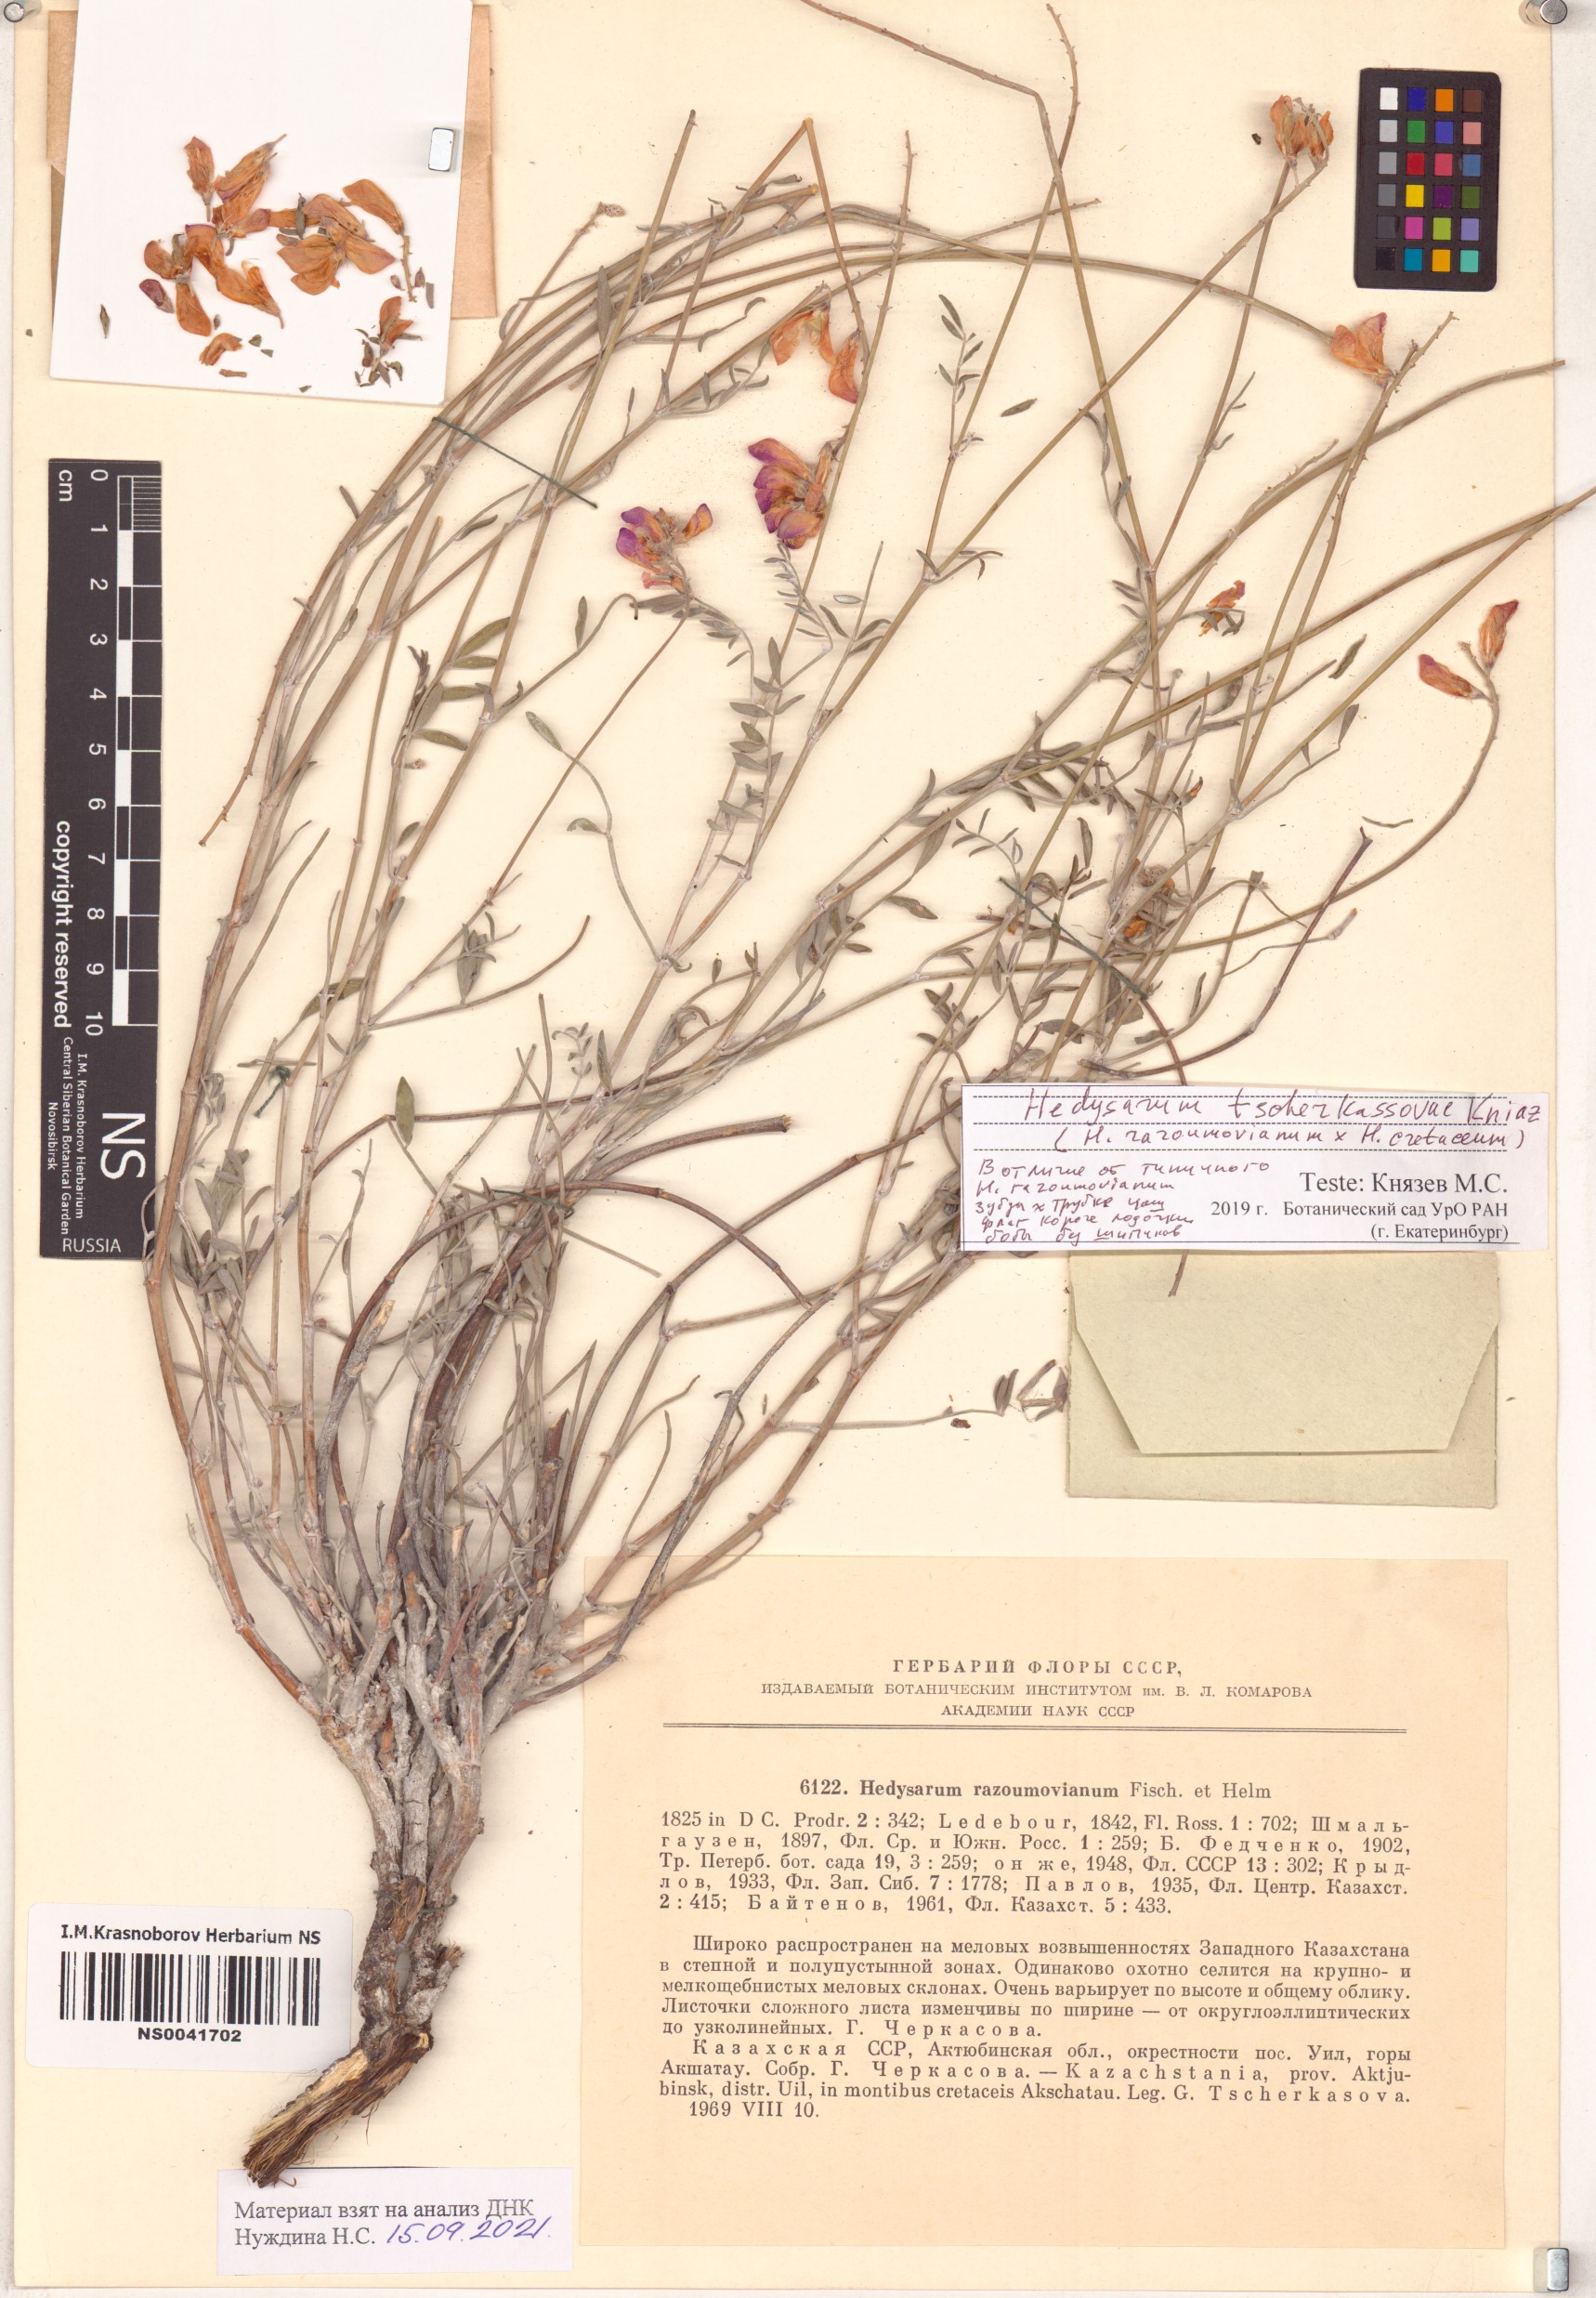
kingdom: Plantae
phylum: Tracheophyta
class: Magnoliopsida
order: Fabales
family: Fabaceae
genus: Hedysarum
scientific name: Hedysarum tscherkassovae
